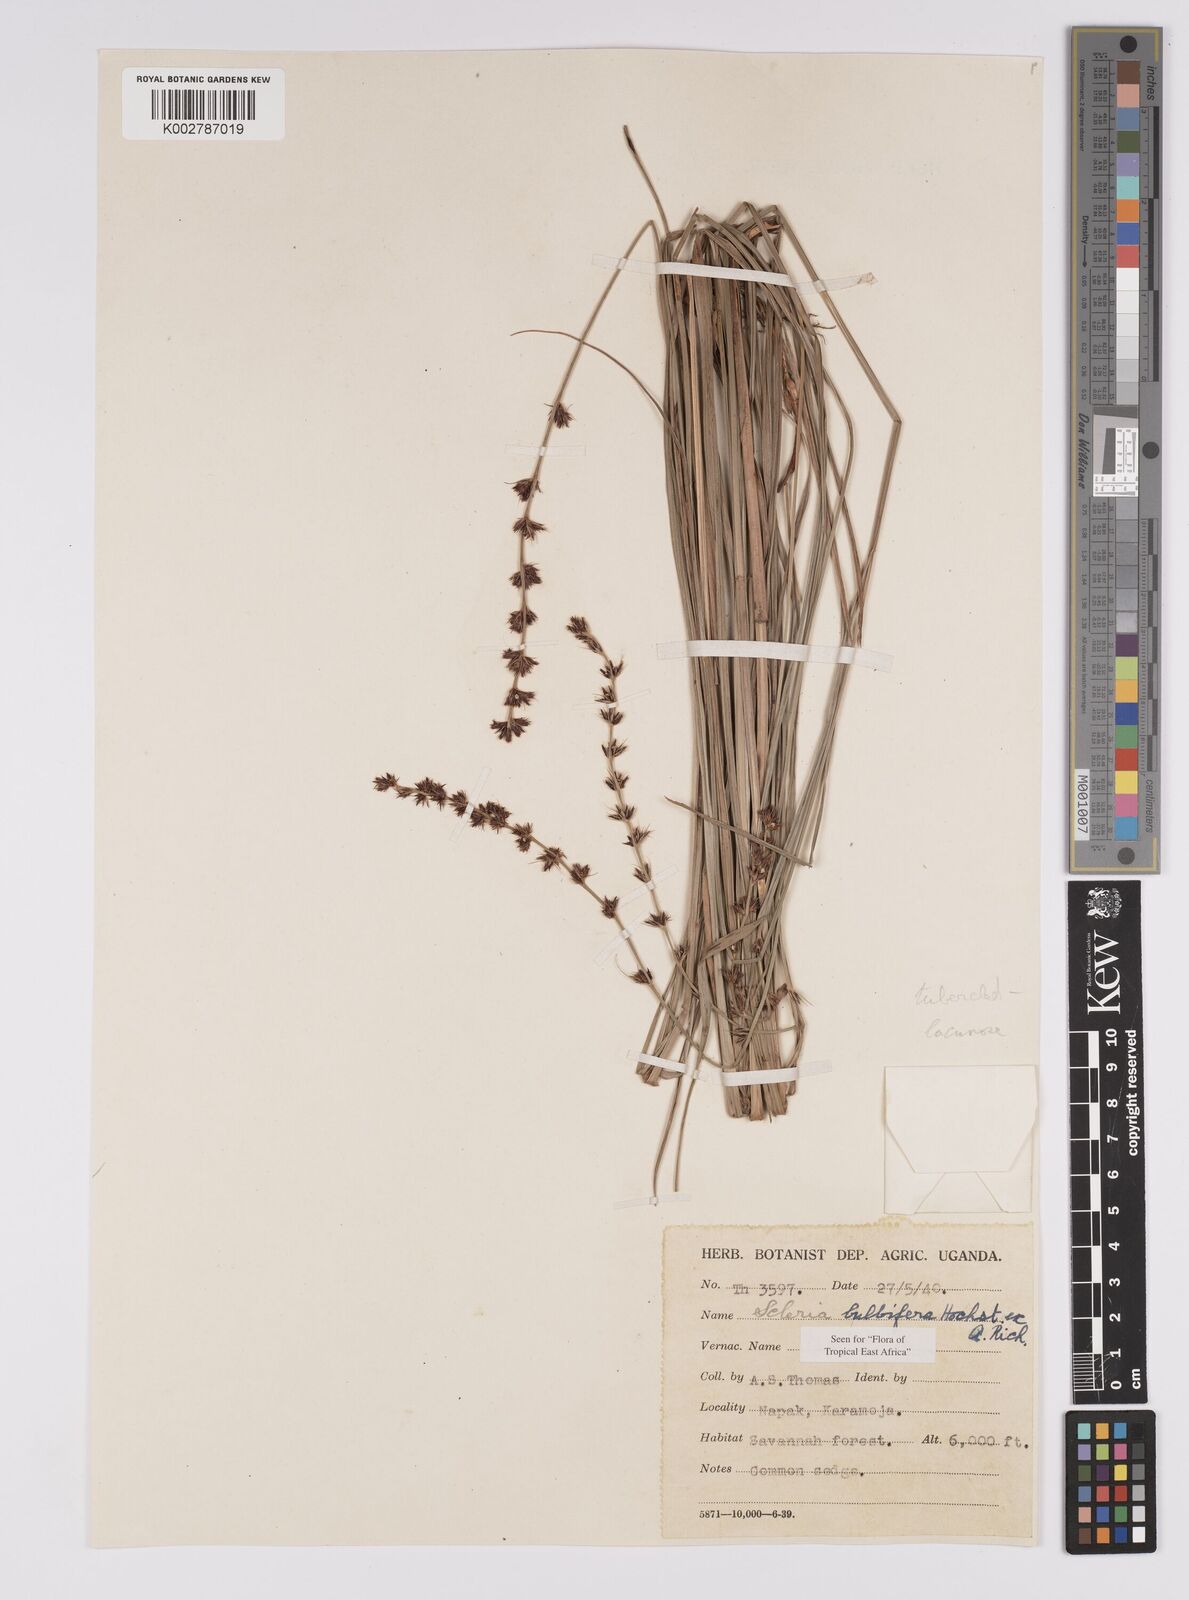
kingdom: Plantae
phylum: Tracheophyta
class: Liliopsida
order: Poales
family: Cyperaceae
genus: Scleria
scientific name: Scleria bulbifera
